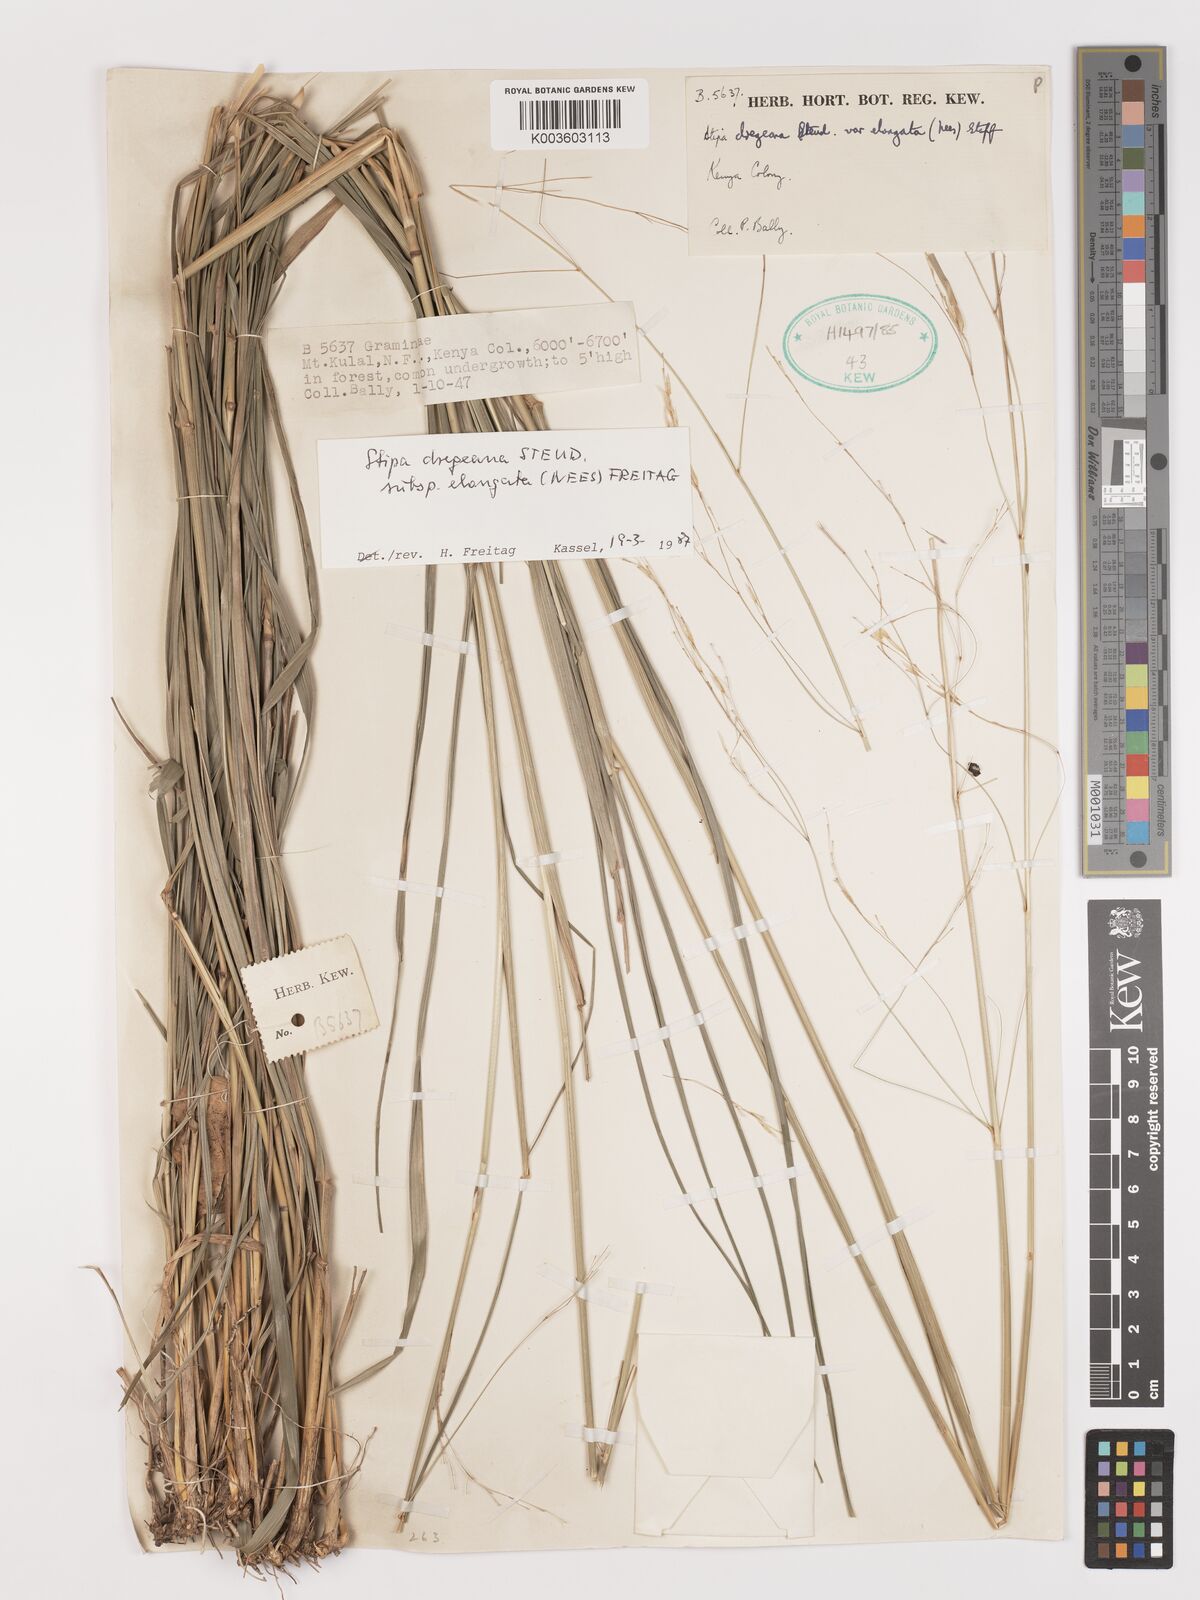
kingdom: Plantae
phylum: Tracheophyta
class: Liliopsida
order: Poales
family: Poaceae
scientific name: Poaceae
